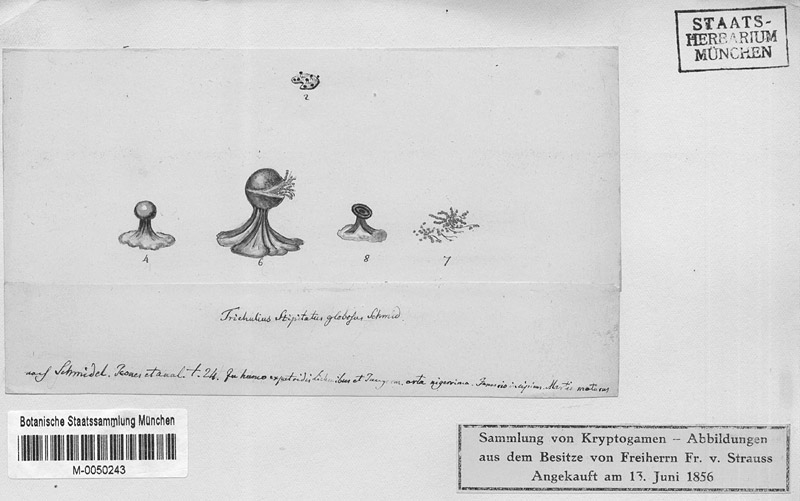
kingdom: Protozoa
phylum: Mycetozoa
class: Myxomycetes
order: Trichiales
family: Arcyriaceae
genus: Hemitrichia
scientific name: Hemitrichia decipiens
